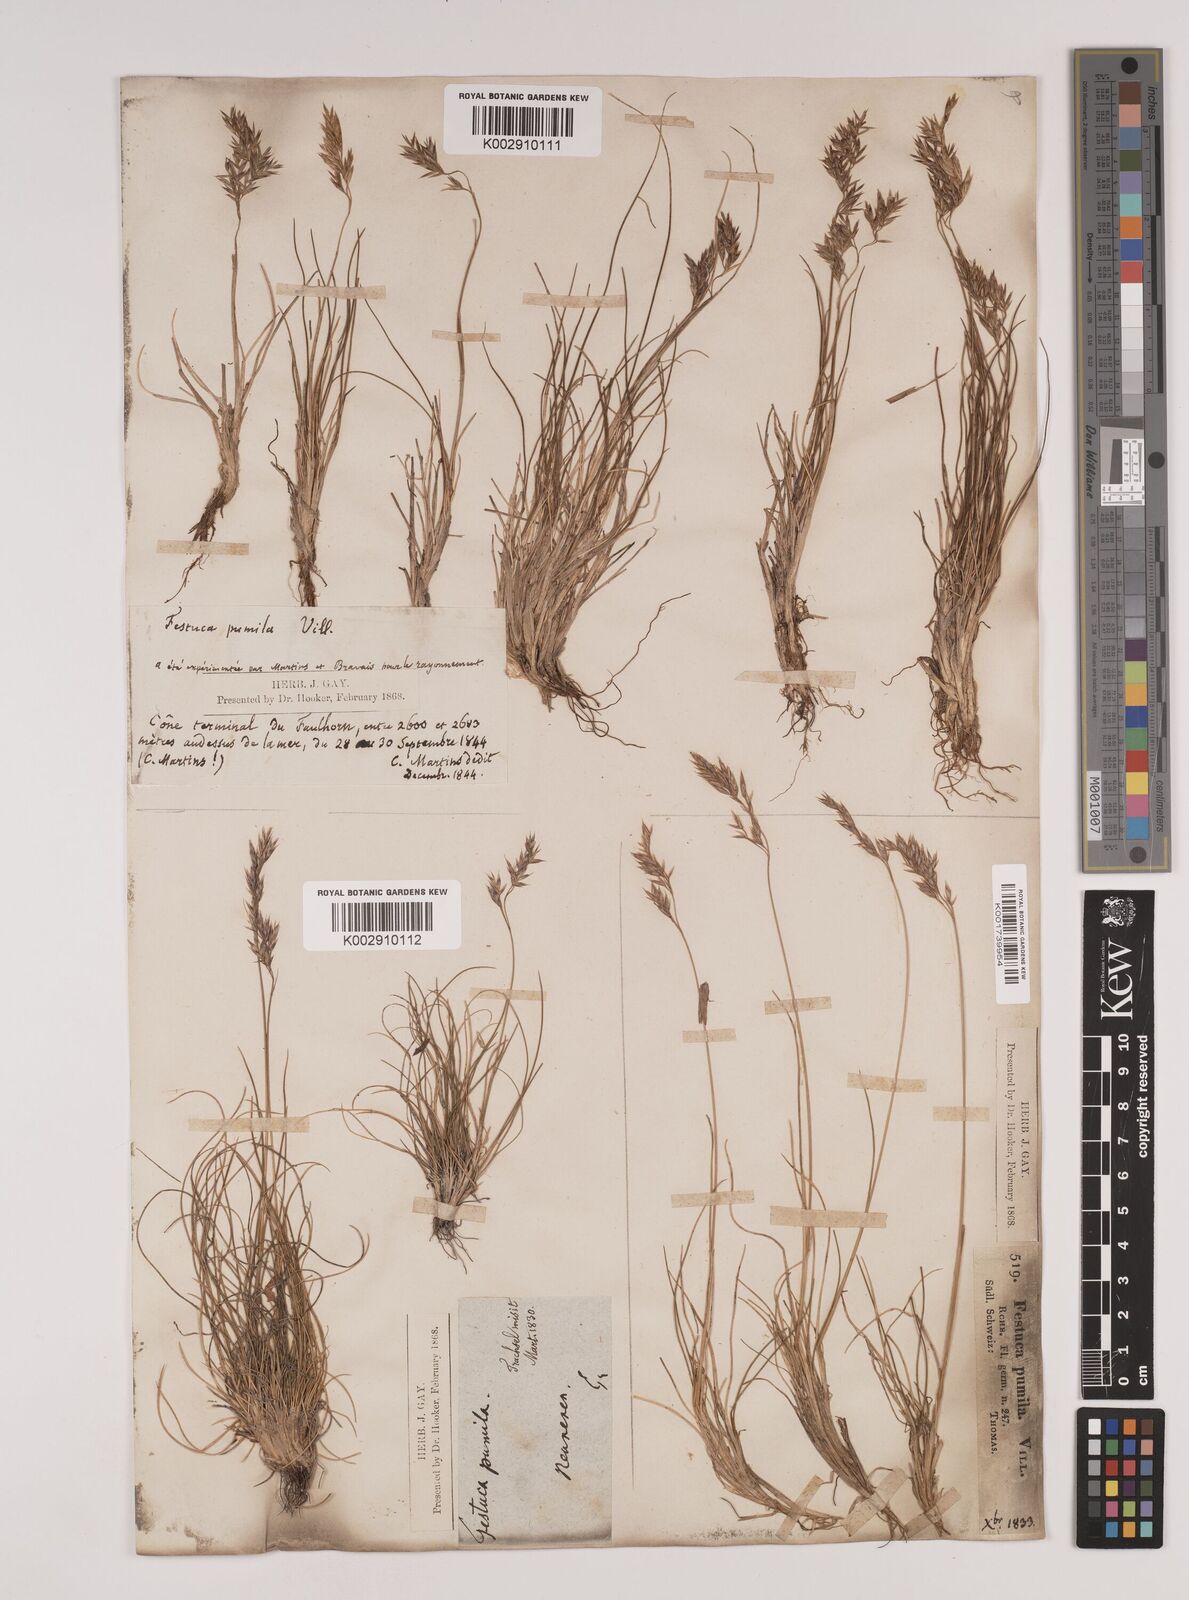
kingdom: Plantae
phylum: Tracheophyta
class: Liliopsida
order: Poales
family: Poaceae
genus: Festuca
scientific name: Festuca
